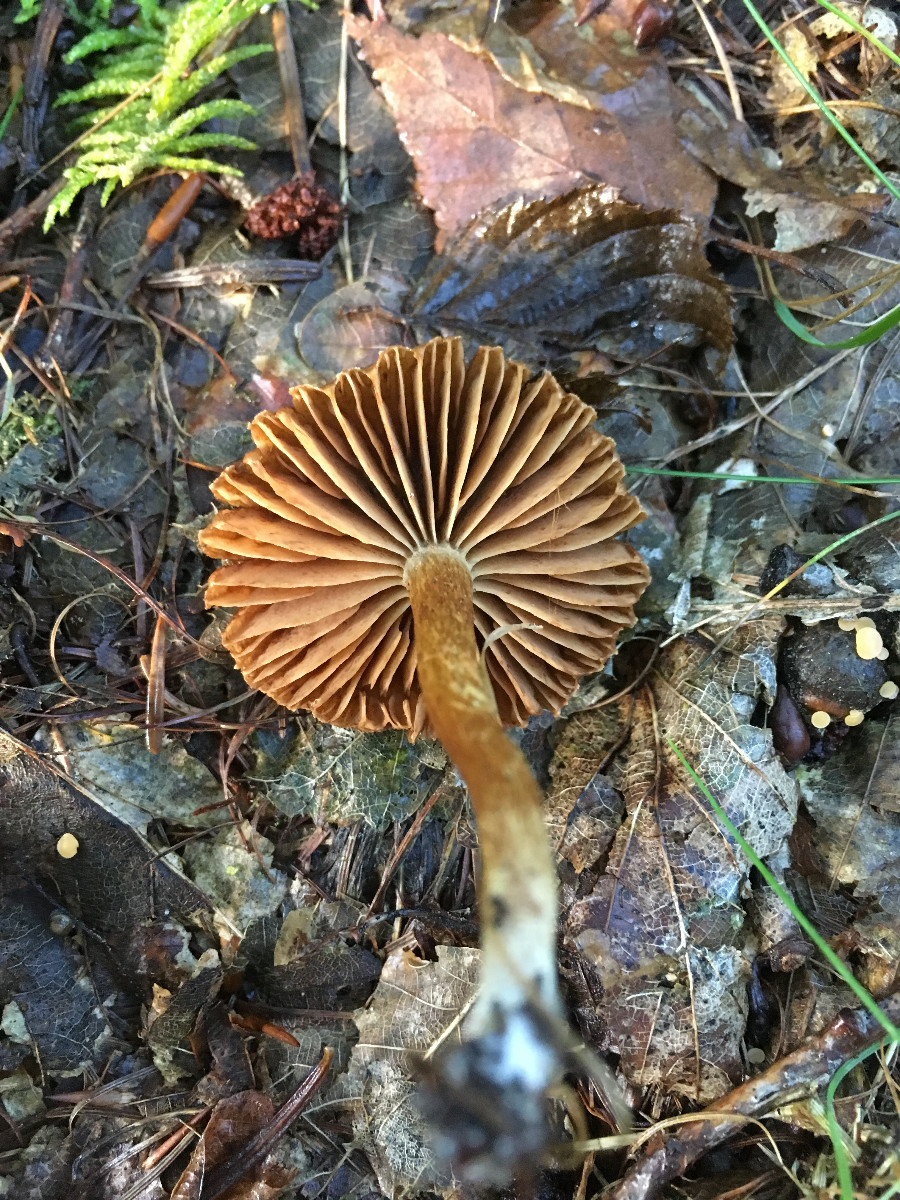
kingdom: Fungi
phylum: Basidiomycota
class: Agaricomycetes
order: Agaricales
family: Cortinariaceae
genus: Cortinarius
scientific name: Cortinarius
